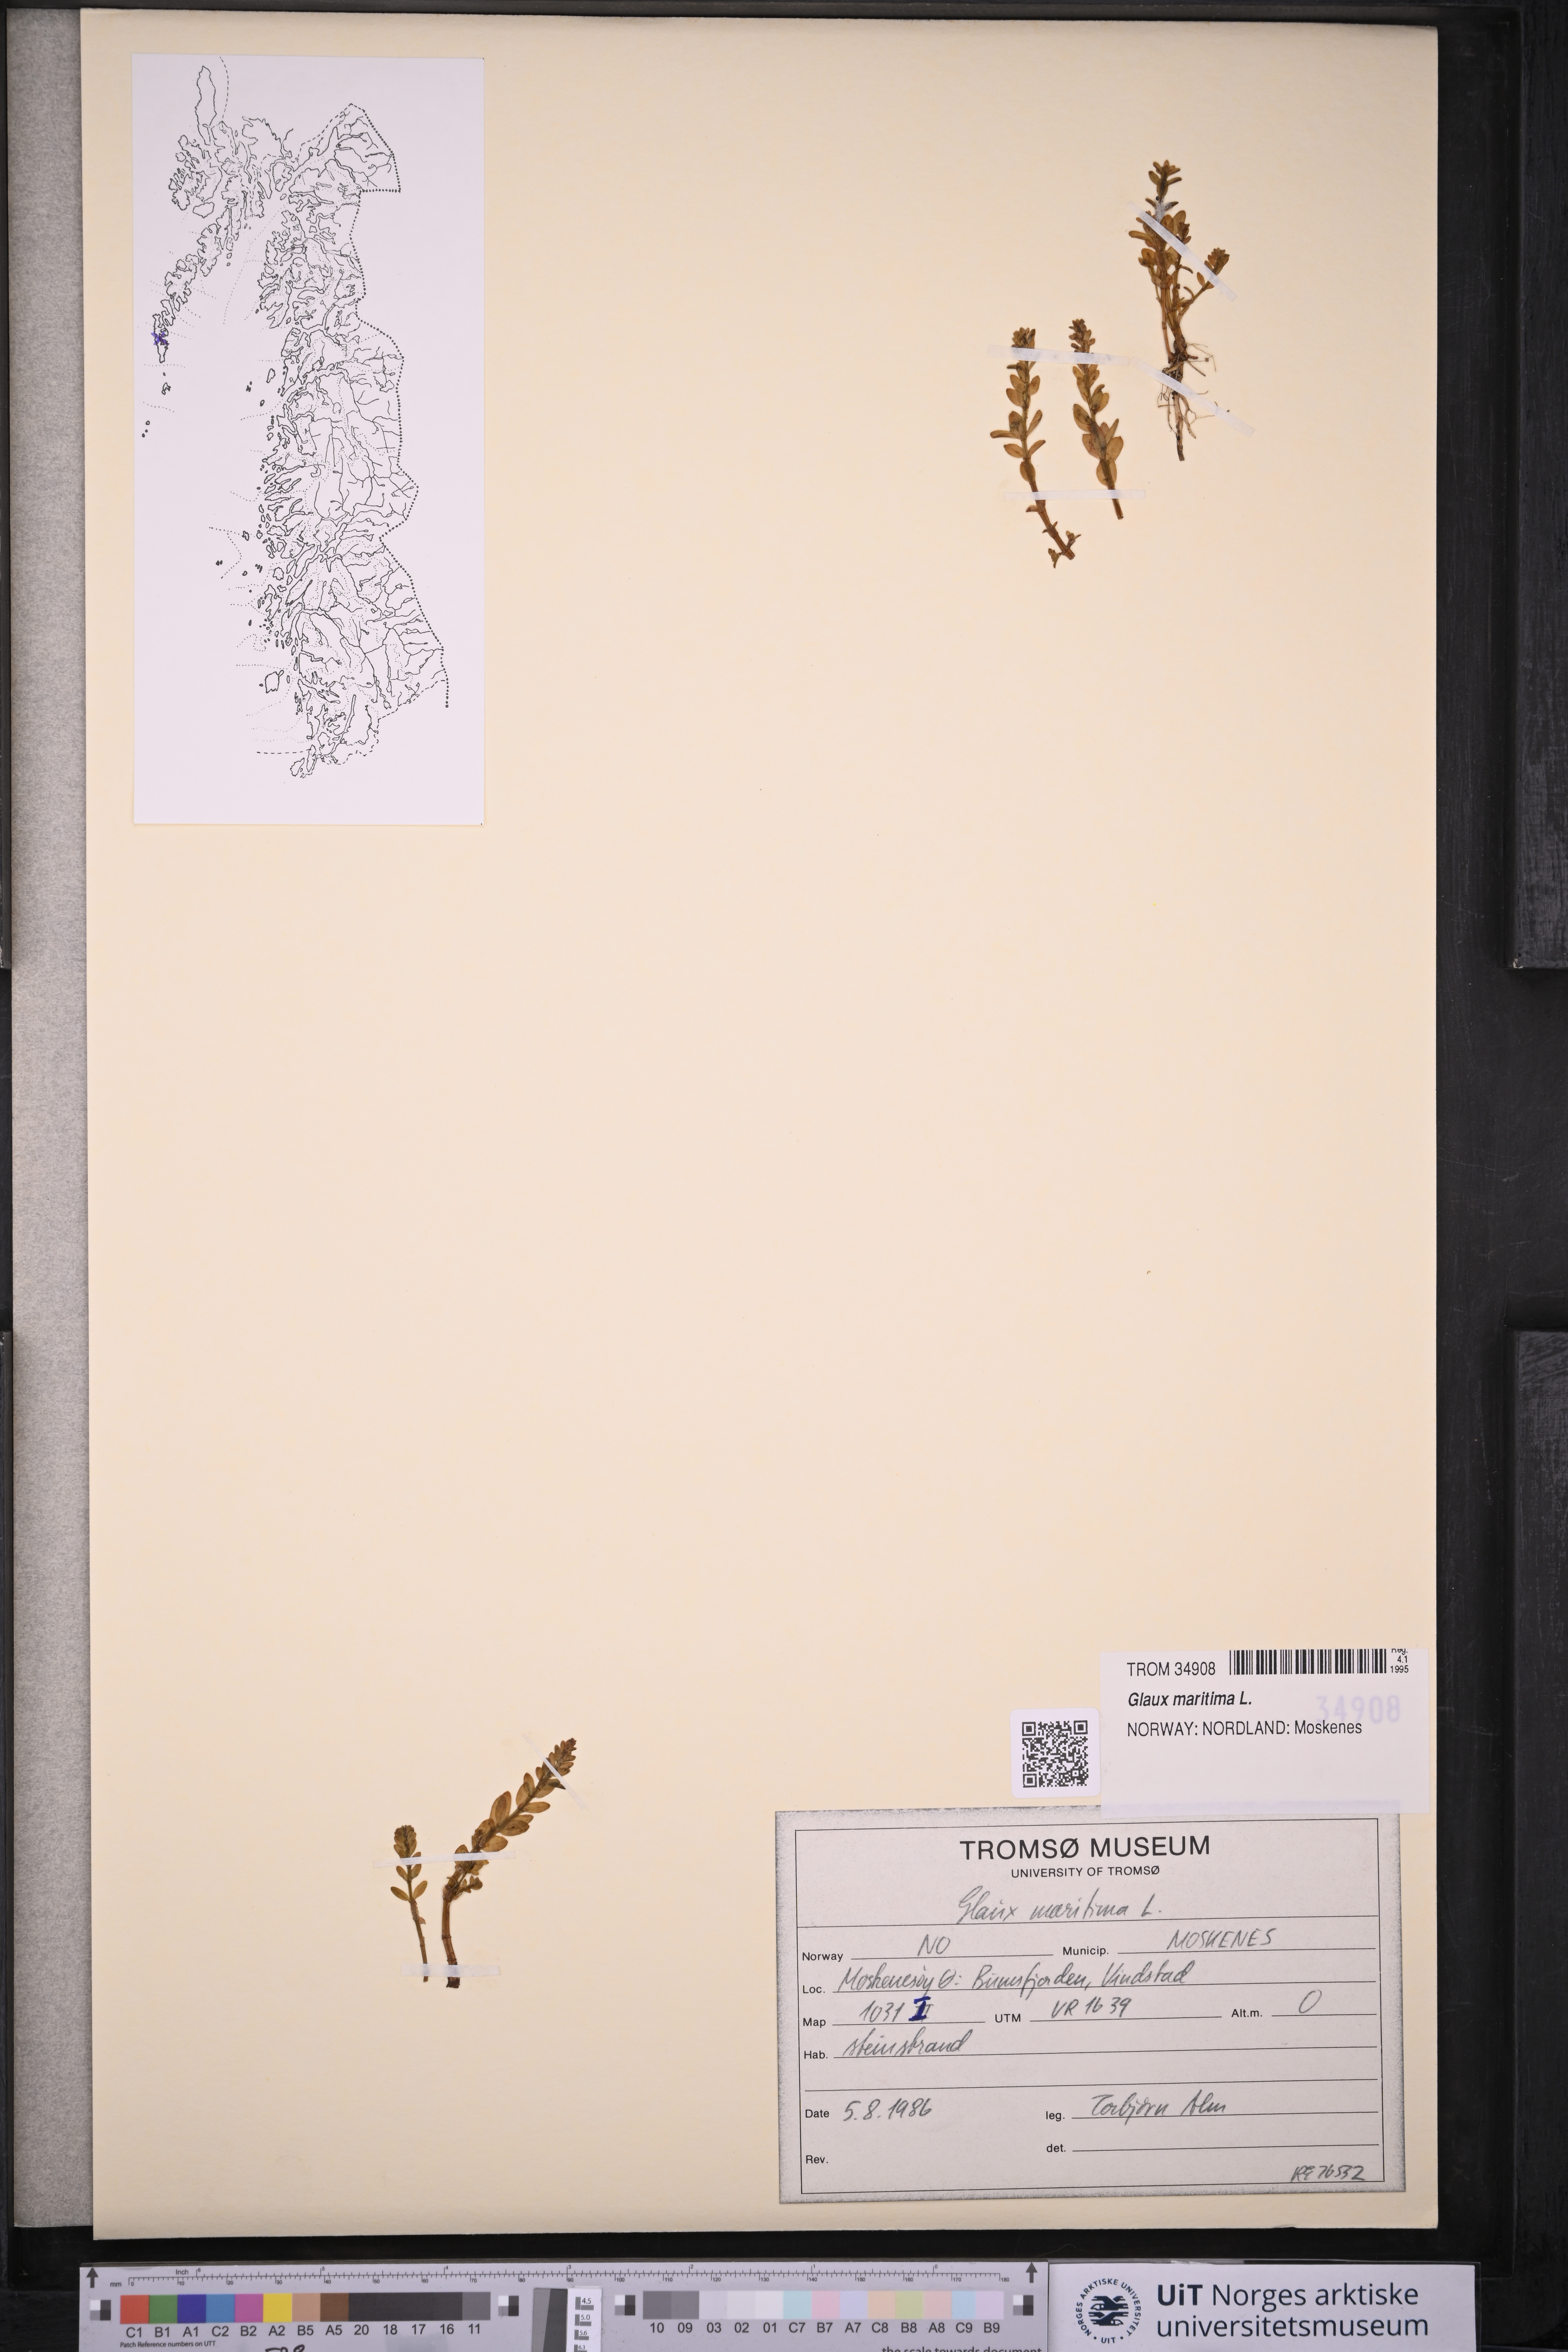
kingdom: Plantae
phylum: Tracheophyta
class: Magnoliopsida
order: Ericales
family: Primulaceae
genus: Lysimachia
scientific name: Lysimachia maritima
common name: Sea milkwort
